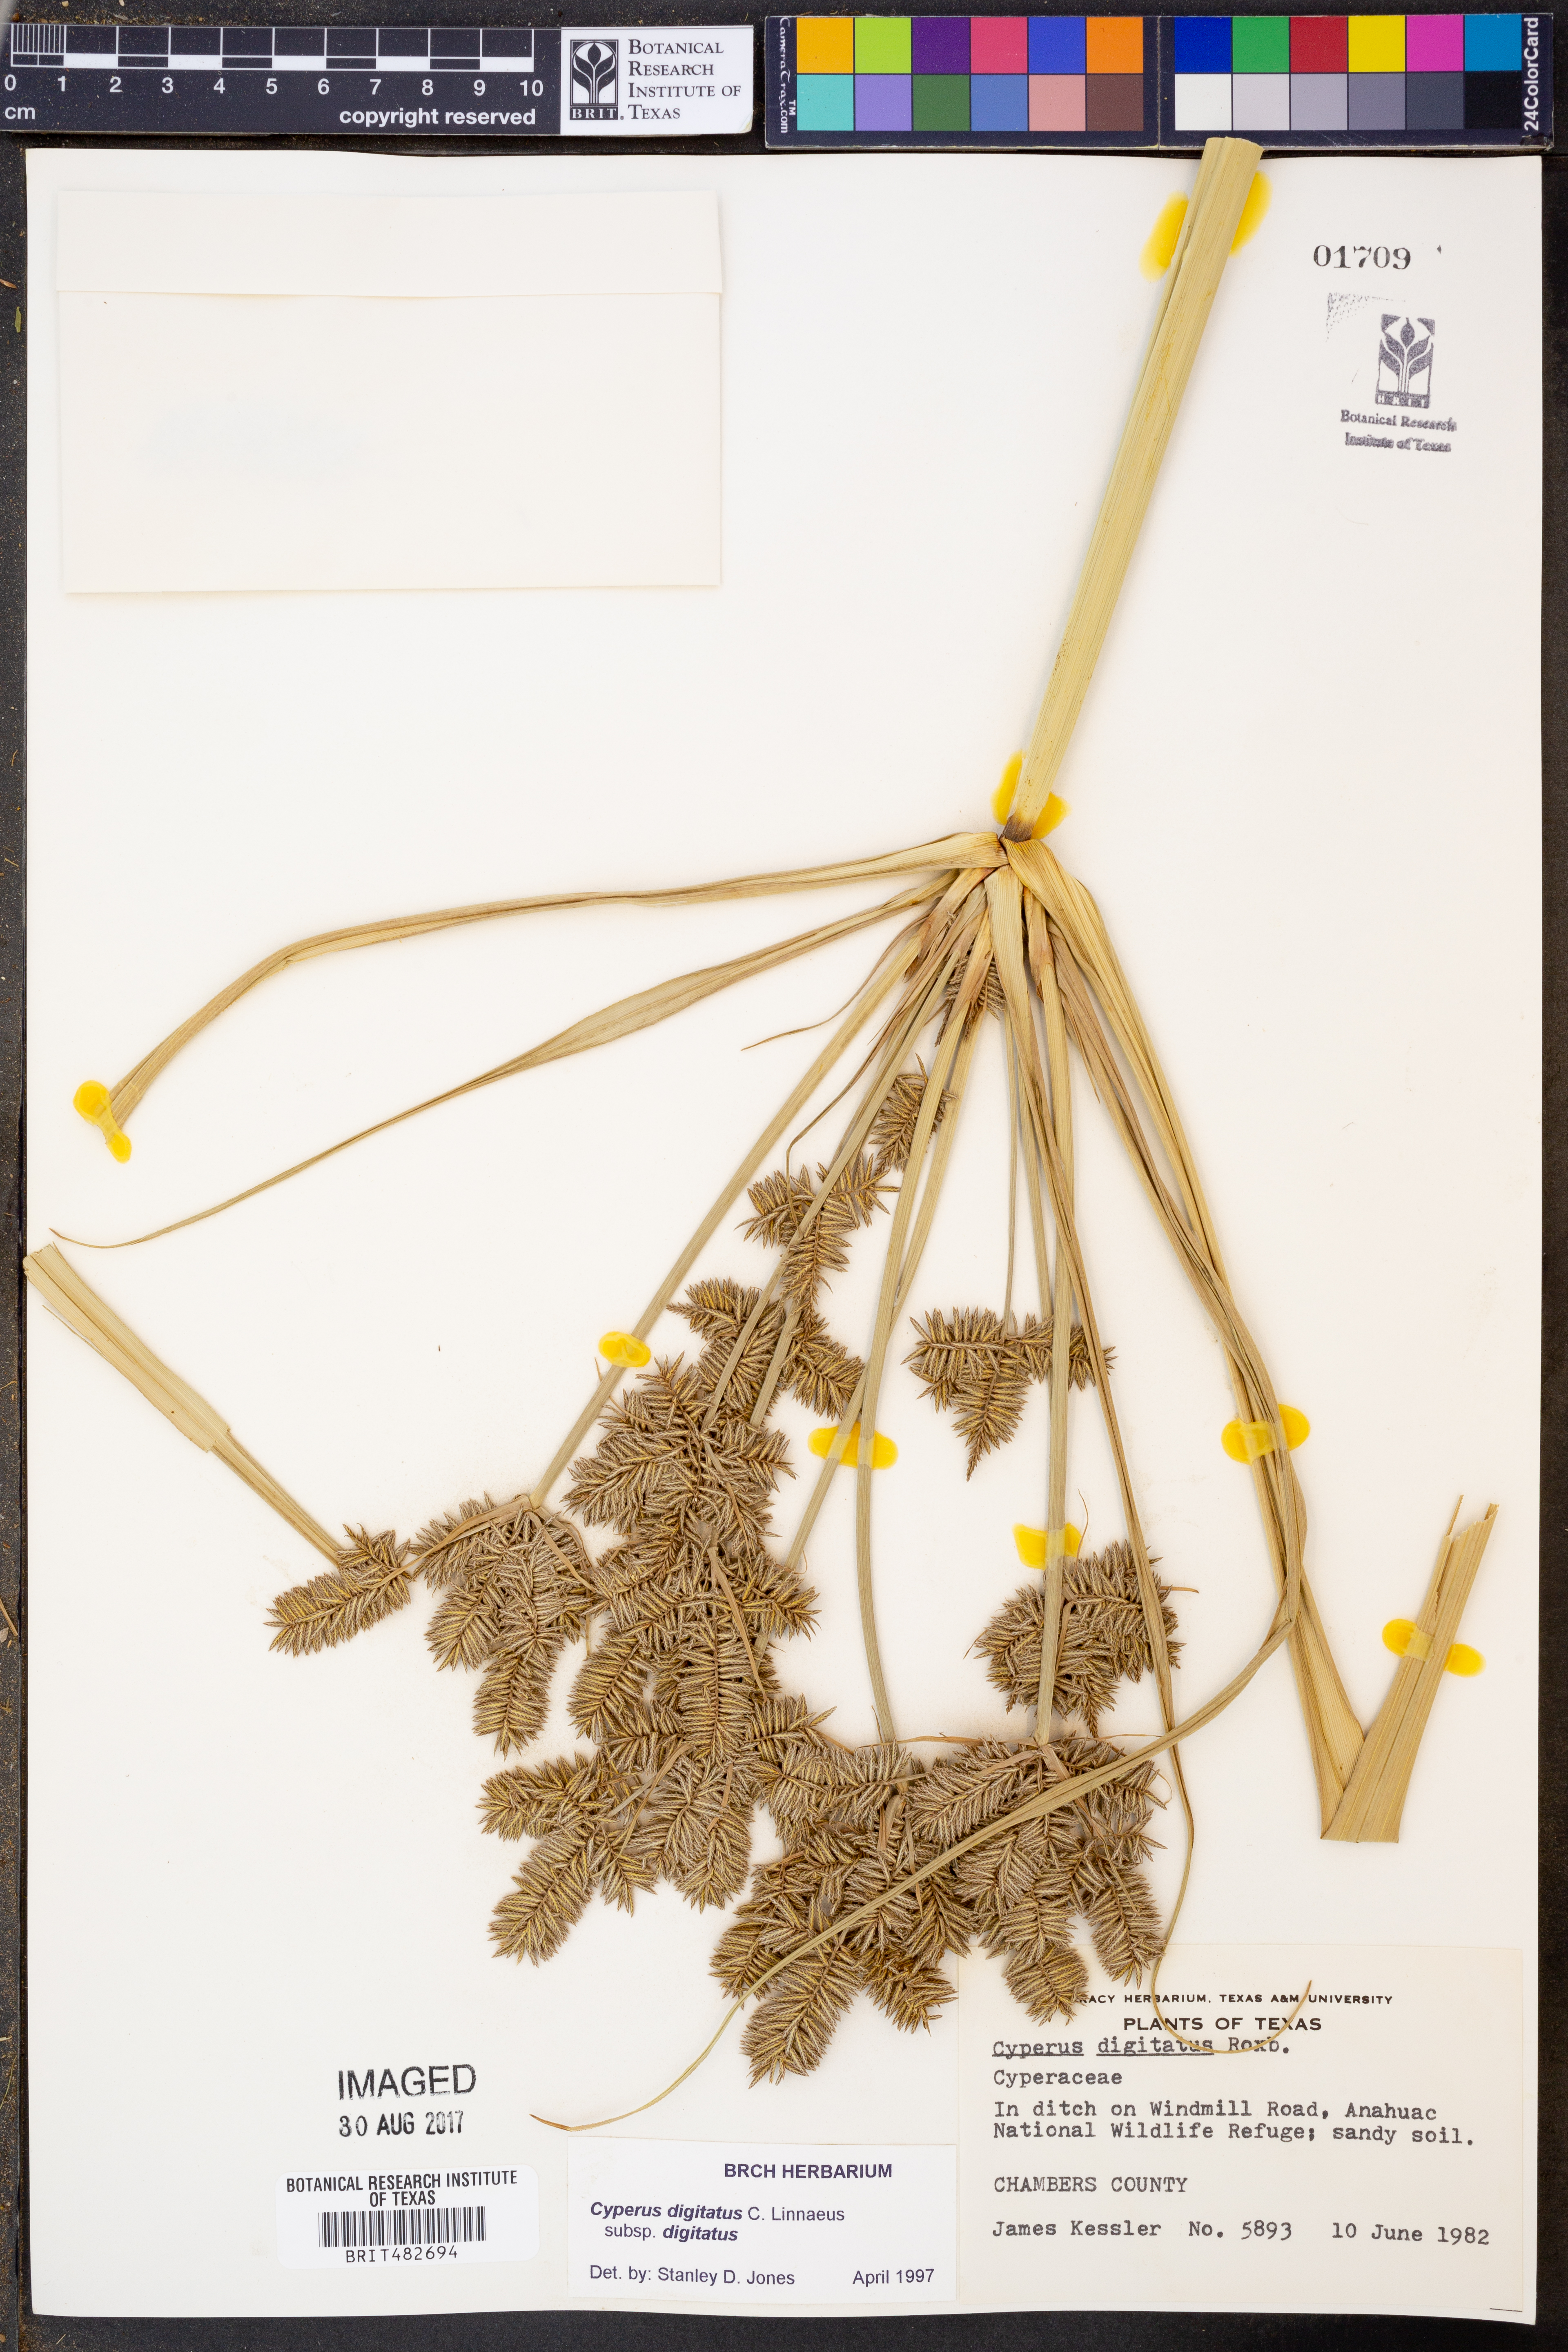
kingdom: Plantae
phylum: Tracheophyta
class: Liliopsida
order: Poales
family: Cyperaceae
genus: Cyperus
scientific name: Cyperus digitatus
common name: Finger flatsedge
